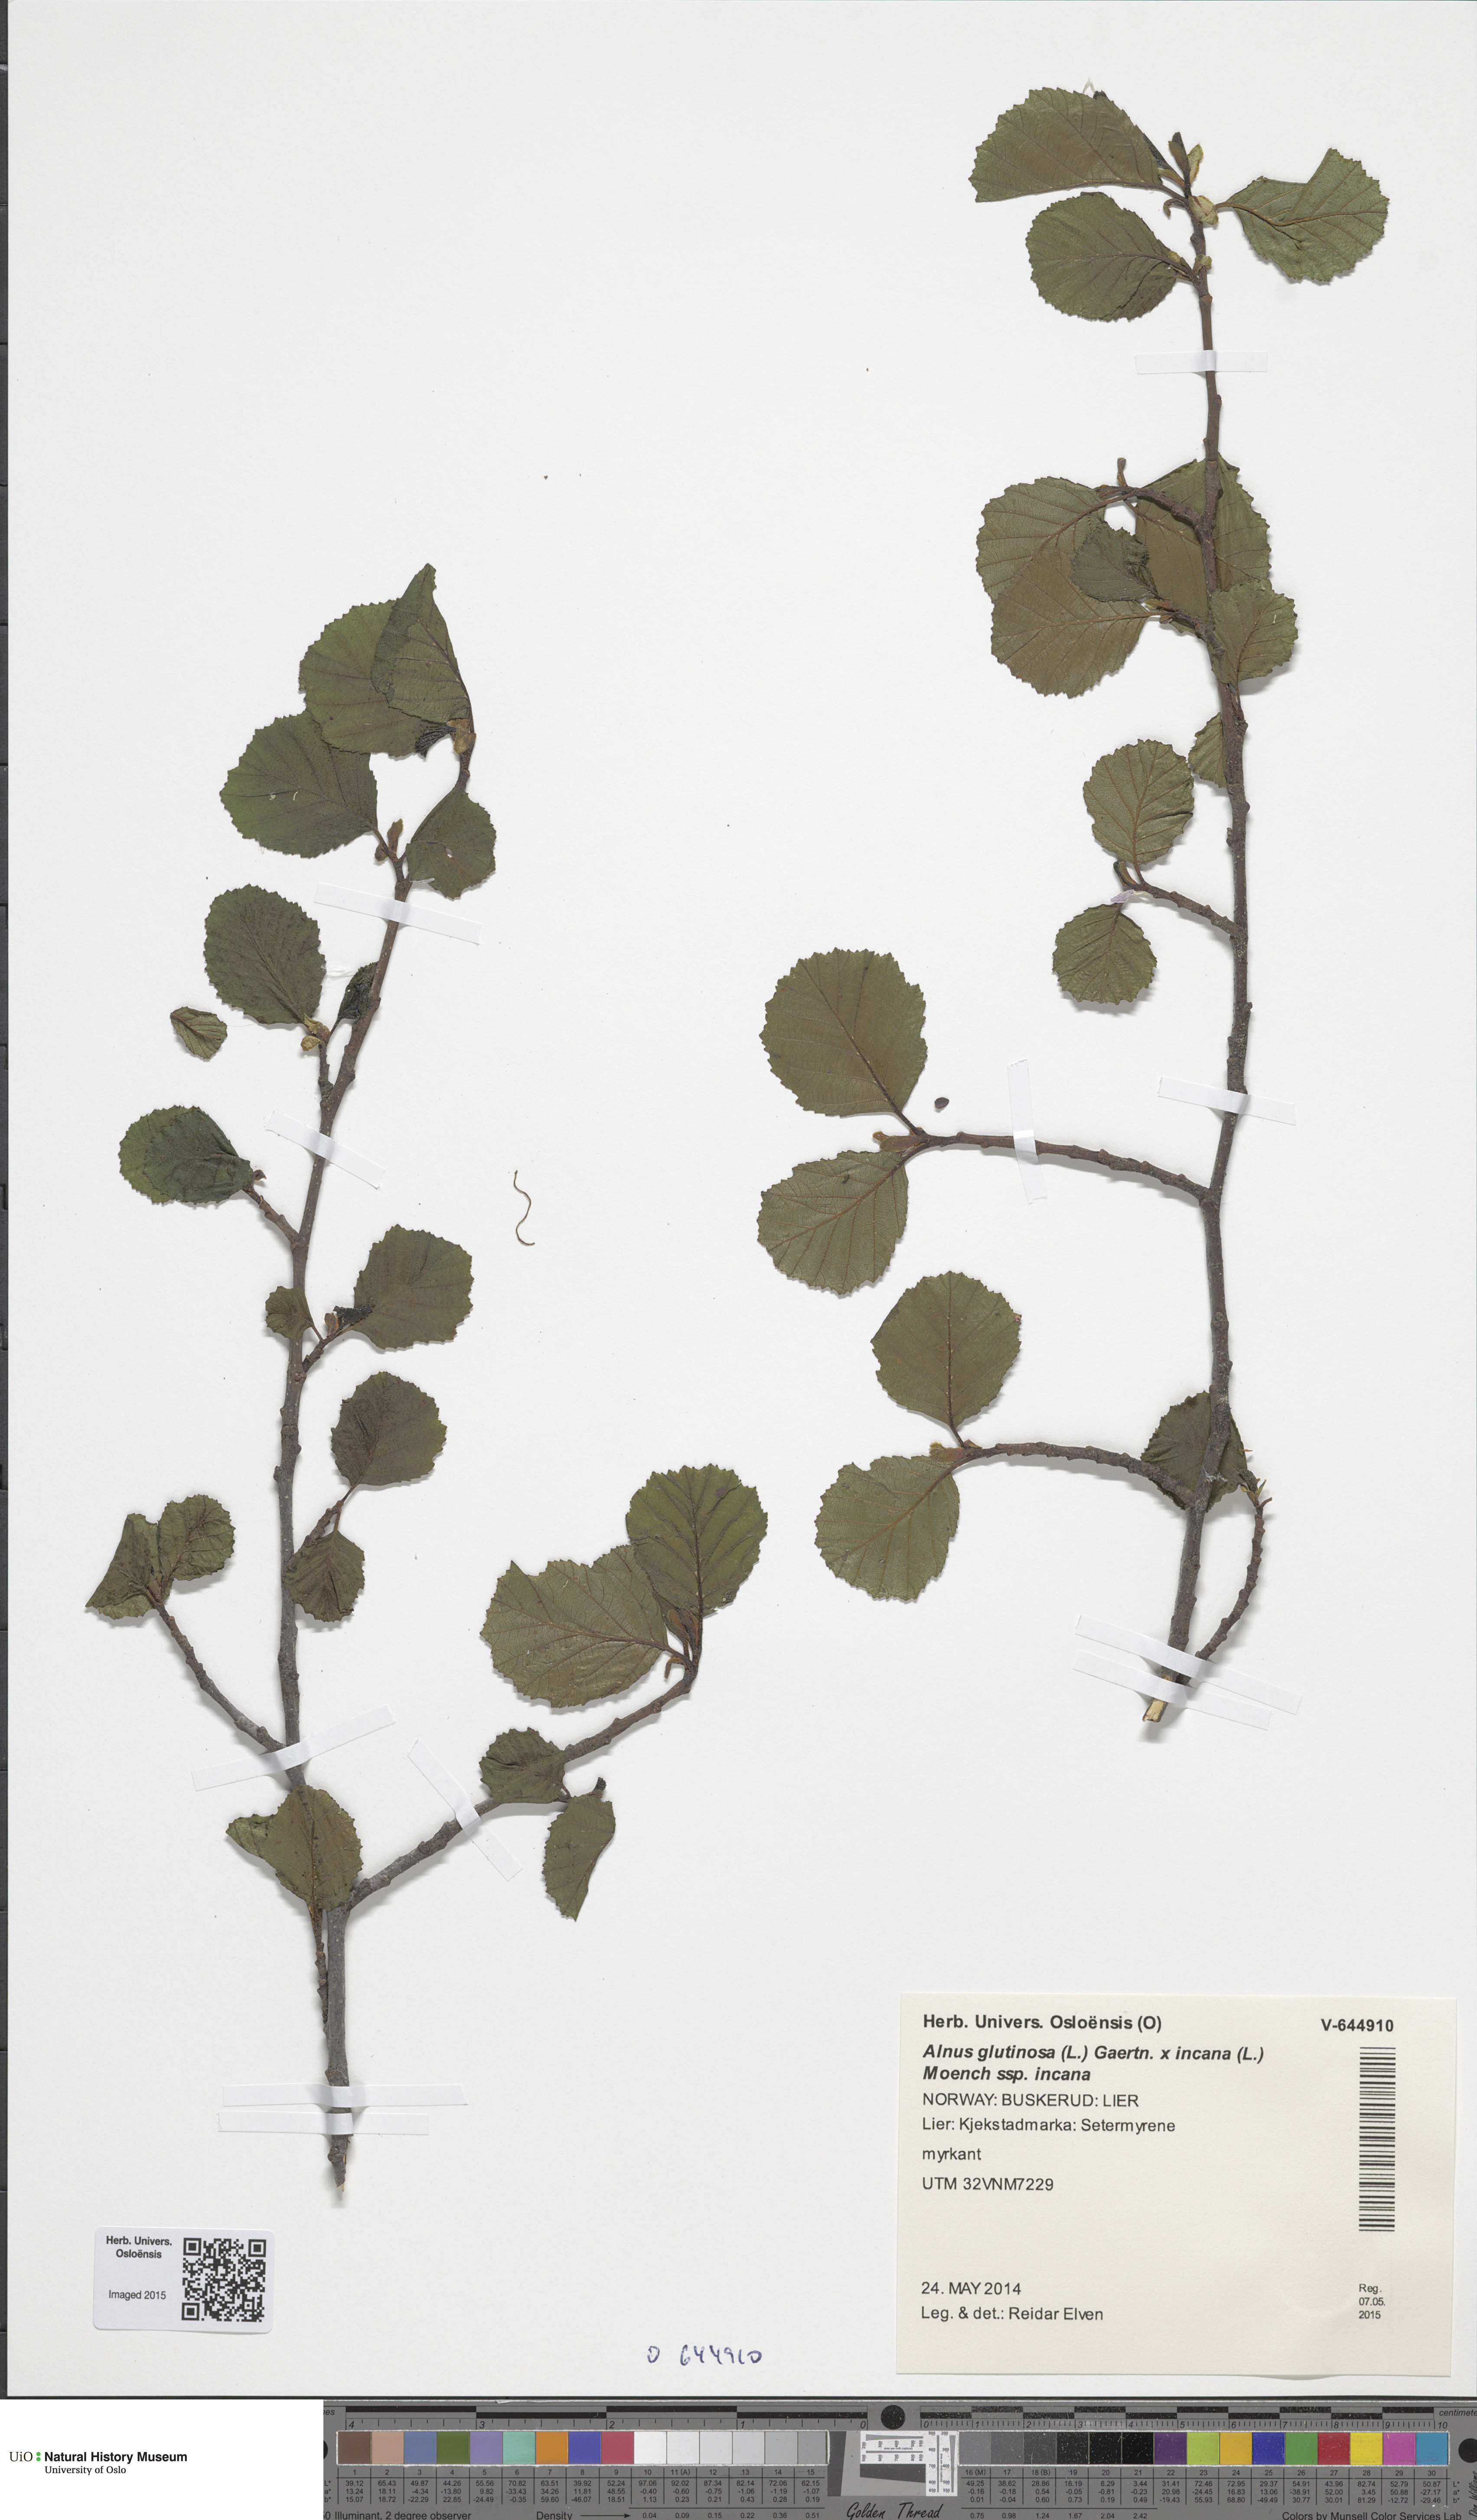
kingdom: Plantae
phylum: Tracheophyta
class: Magnoliopsida
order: Fagales
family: Betulaceae
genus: Alnus
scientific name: Alnus
